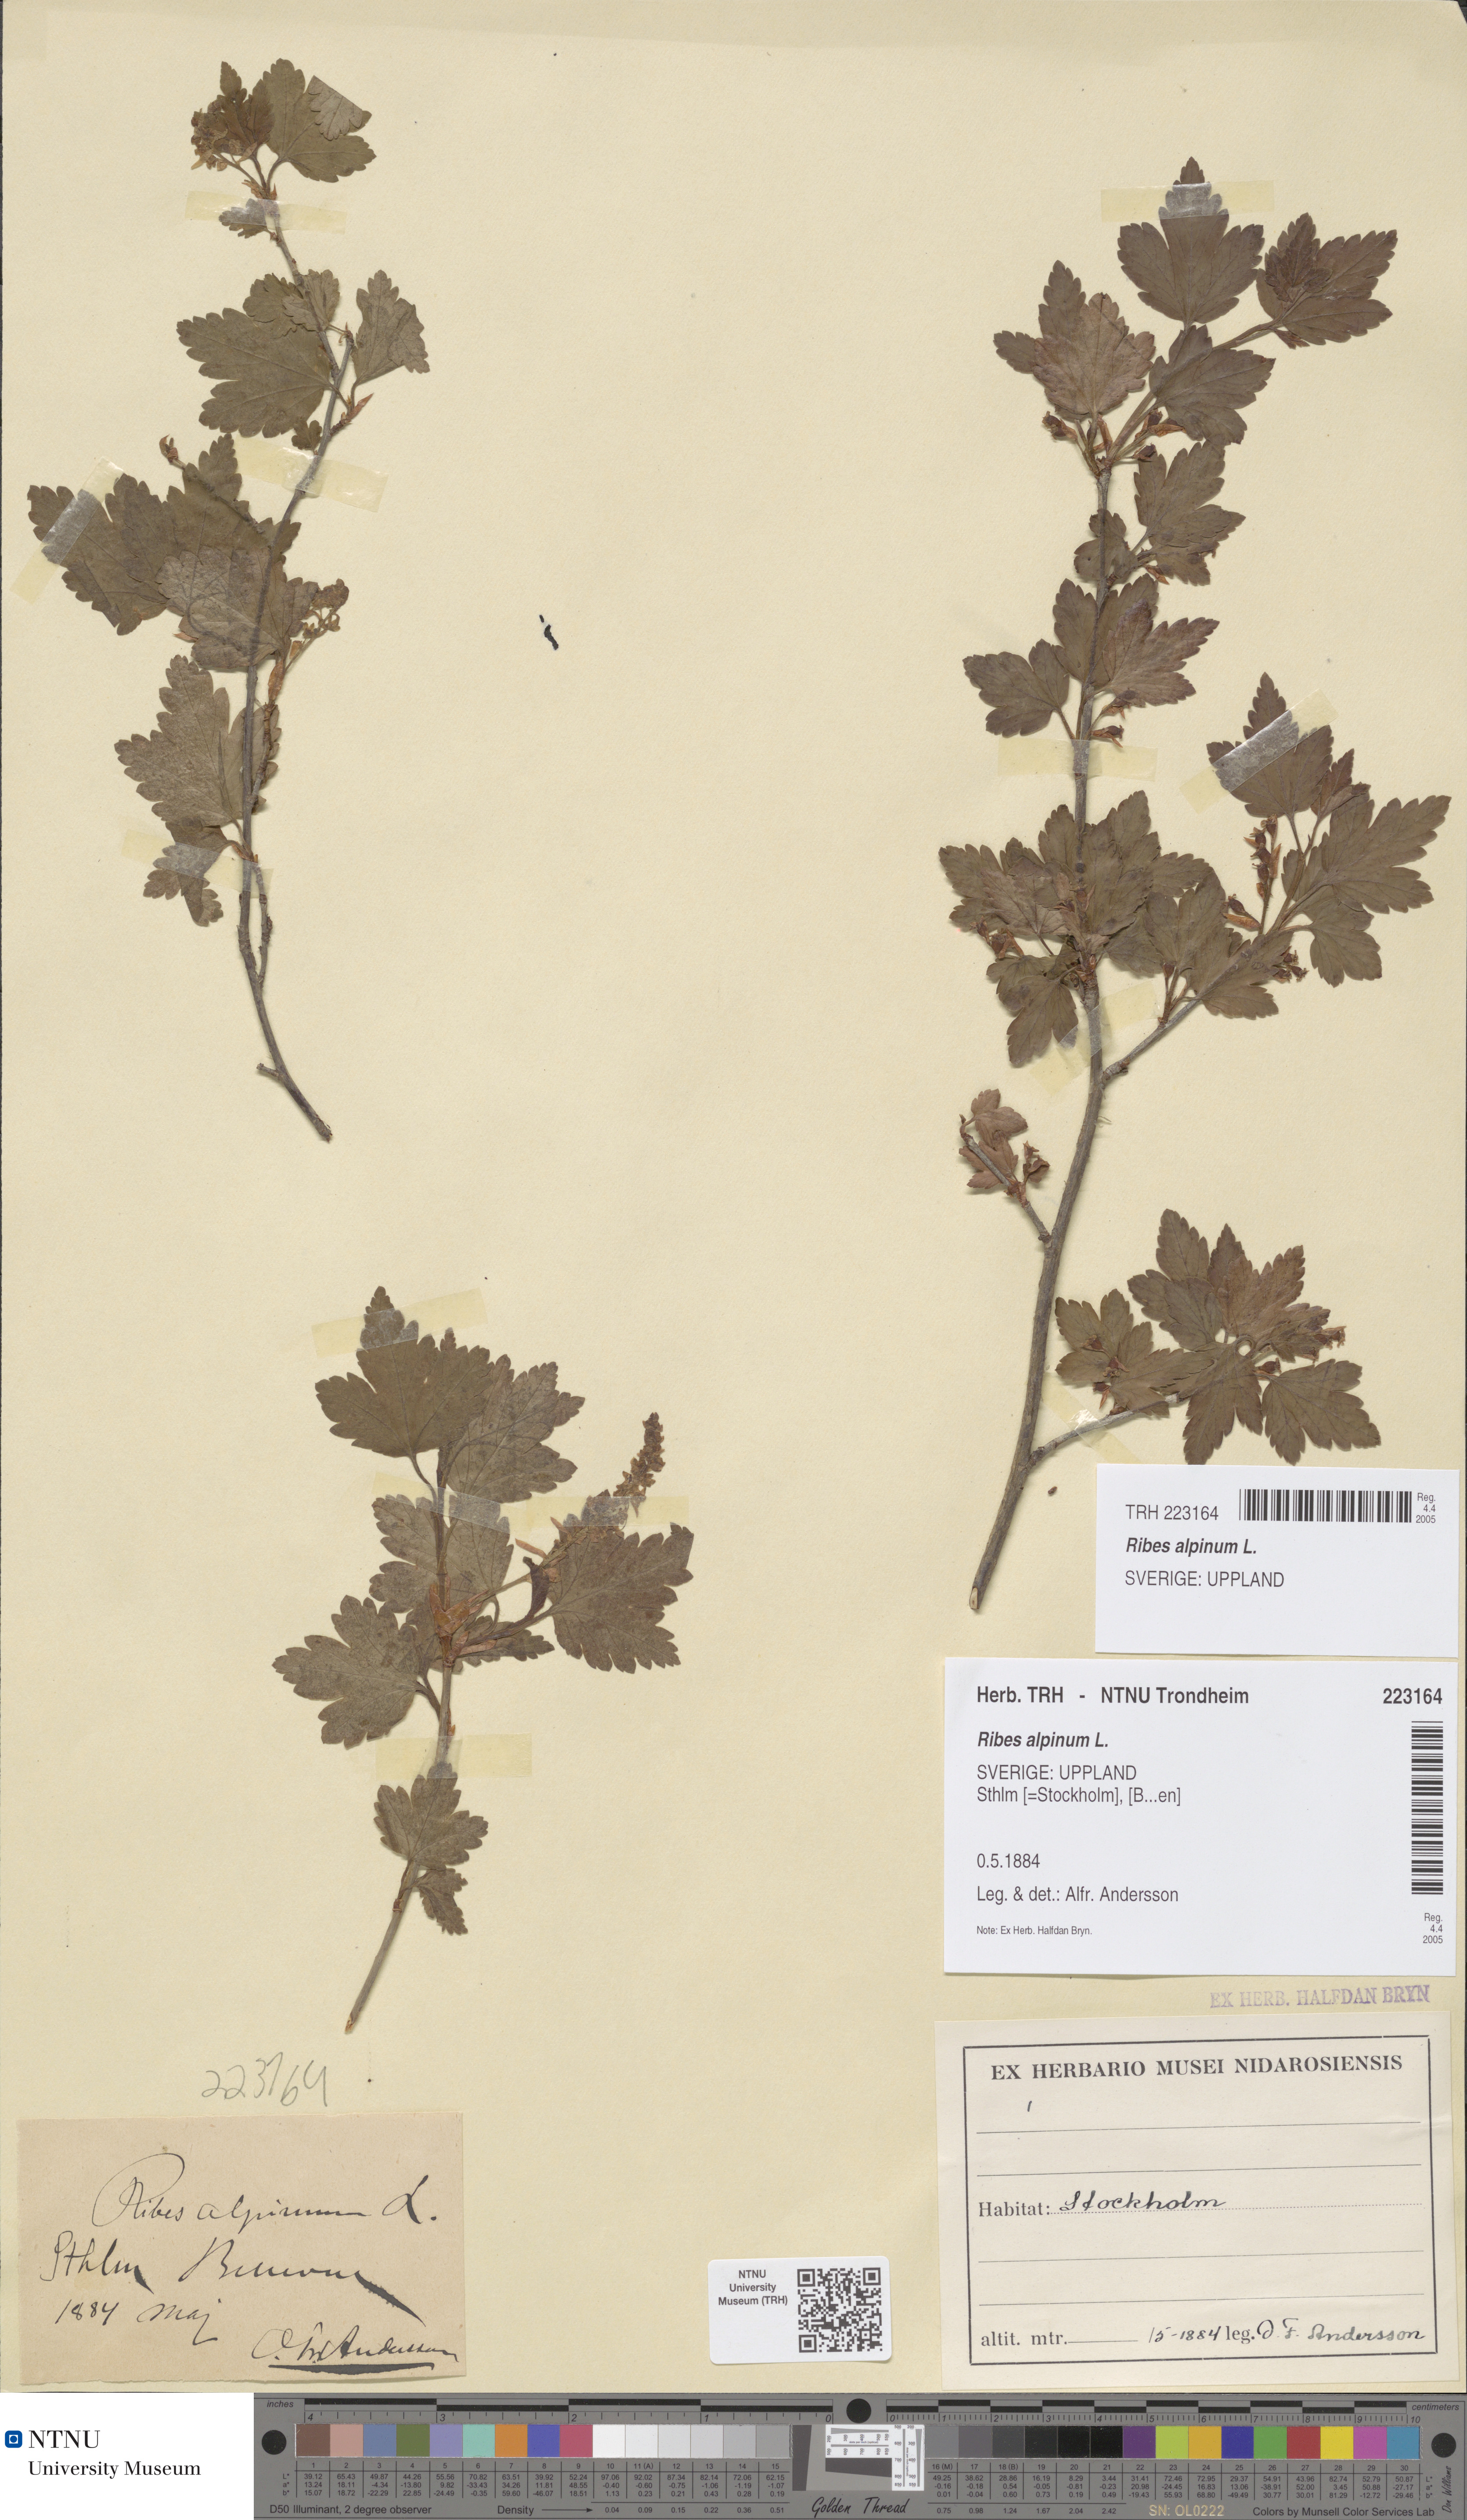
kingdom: Plantae
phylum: Tracheophyta
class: Magnoliopsida
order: Saxifragales
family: Grossulariaceae
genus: Ribes
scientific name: Ribes alpinum
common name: Alpine currant
